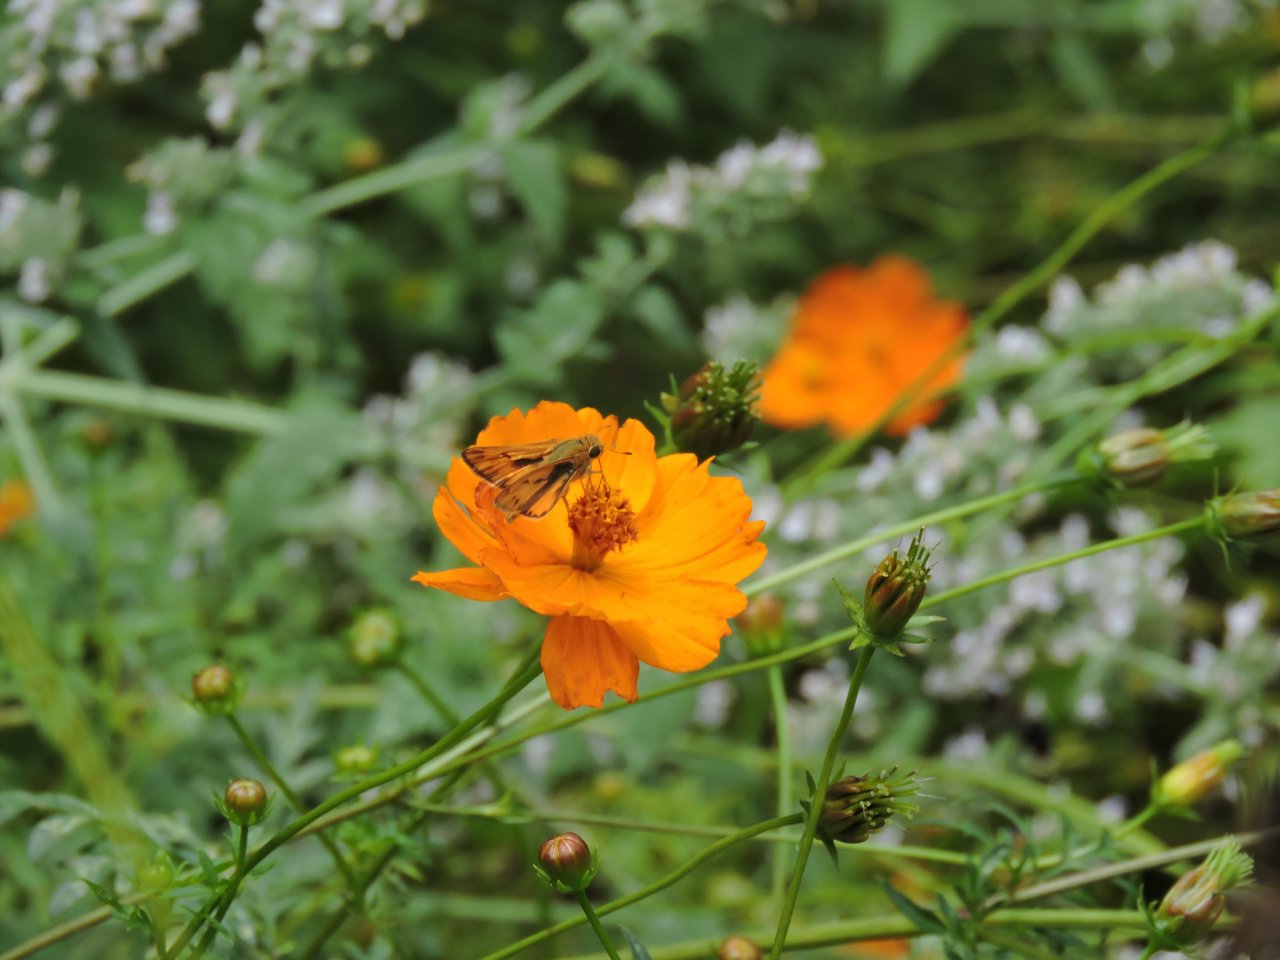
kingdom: Animalia
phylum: Arthropoda
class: Insecta
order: Lepidoptera
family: Hesperiidae
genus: Hylephila
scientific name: Hylephila phyleus
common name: Fiery Skipper
